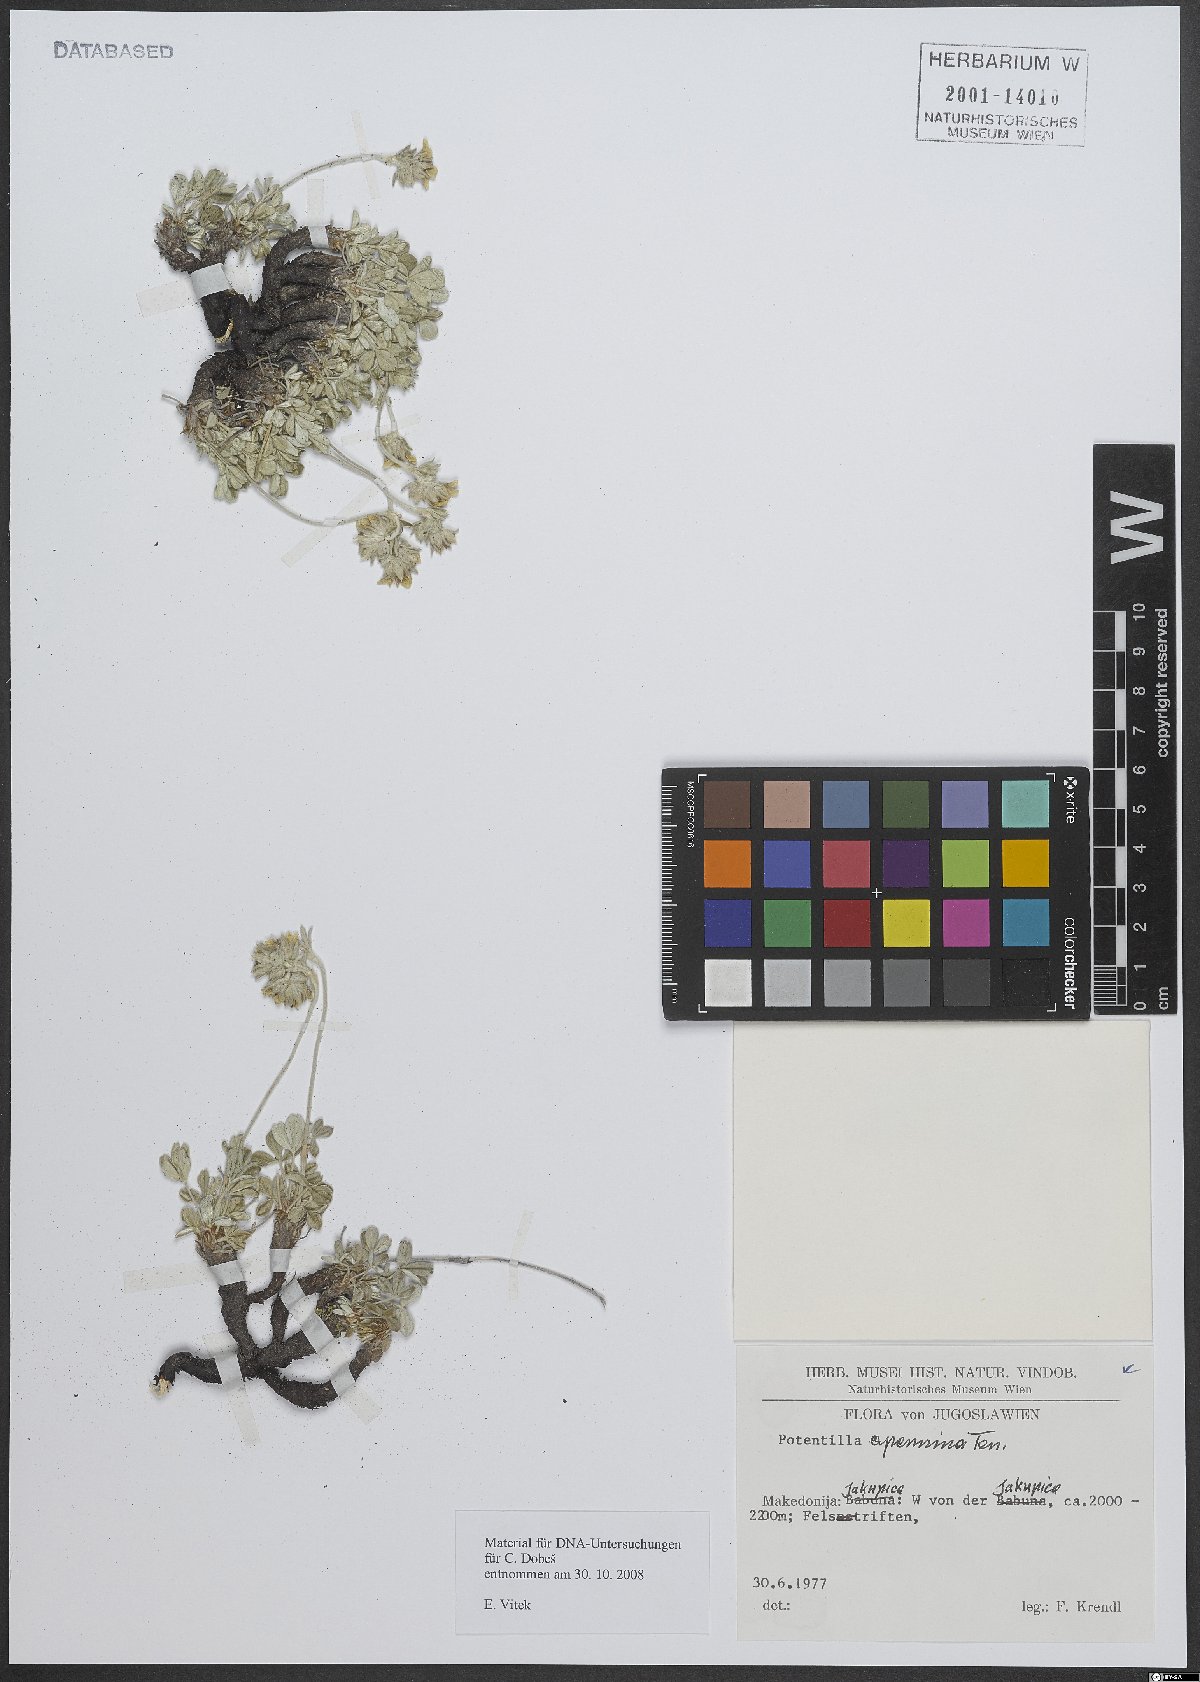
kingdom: Plantae
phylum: Tracheophyta
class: Magnoliopsida
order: Rosales
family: Rosaceae
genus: Potentilla
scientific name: Potentilla apennina
